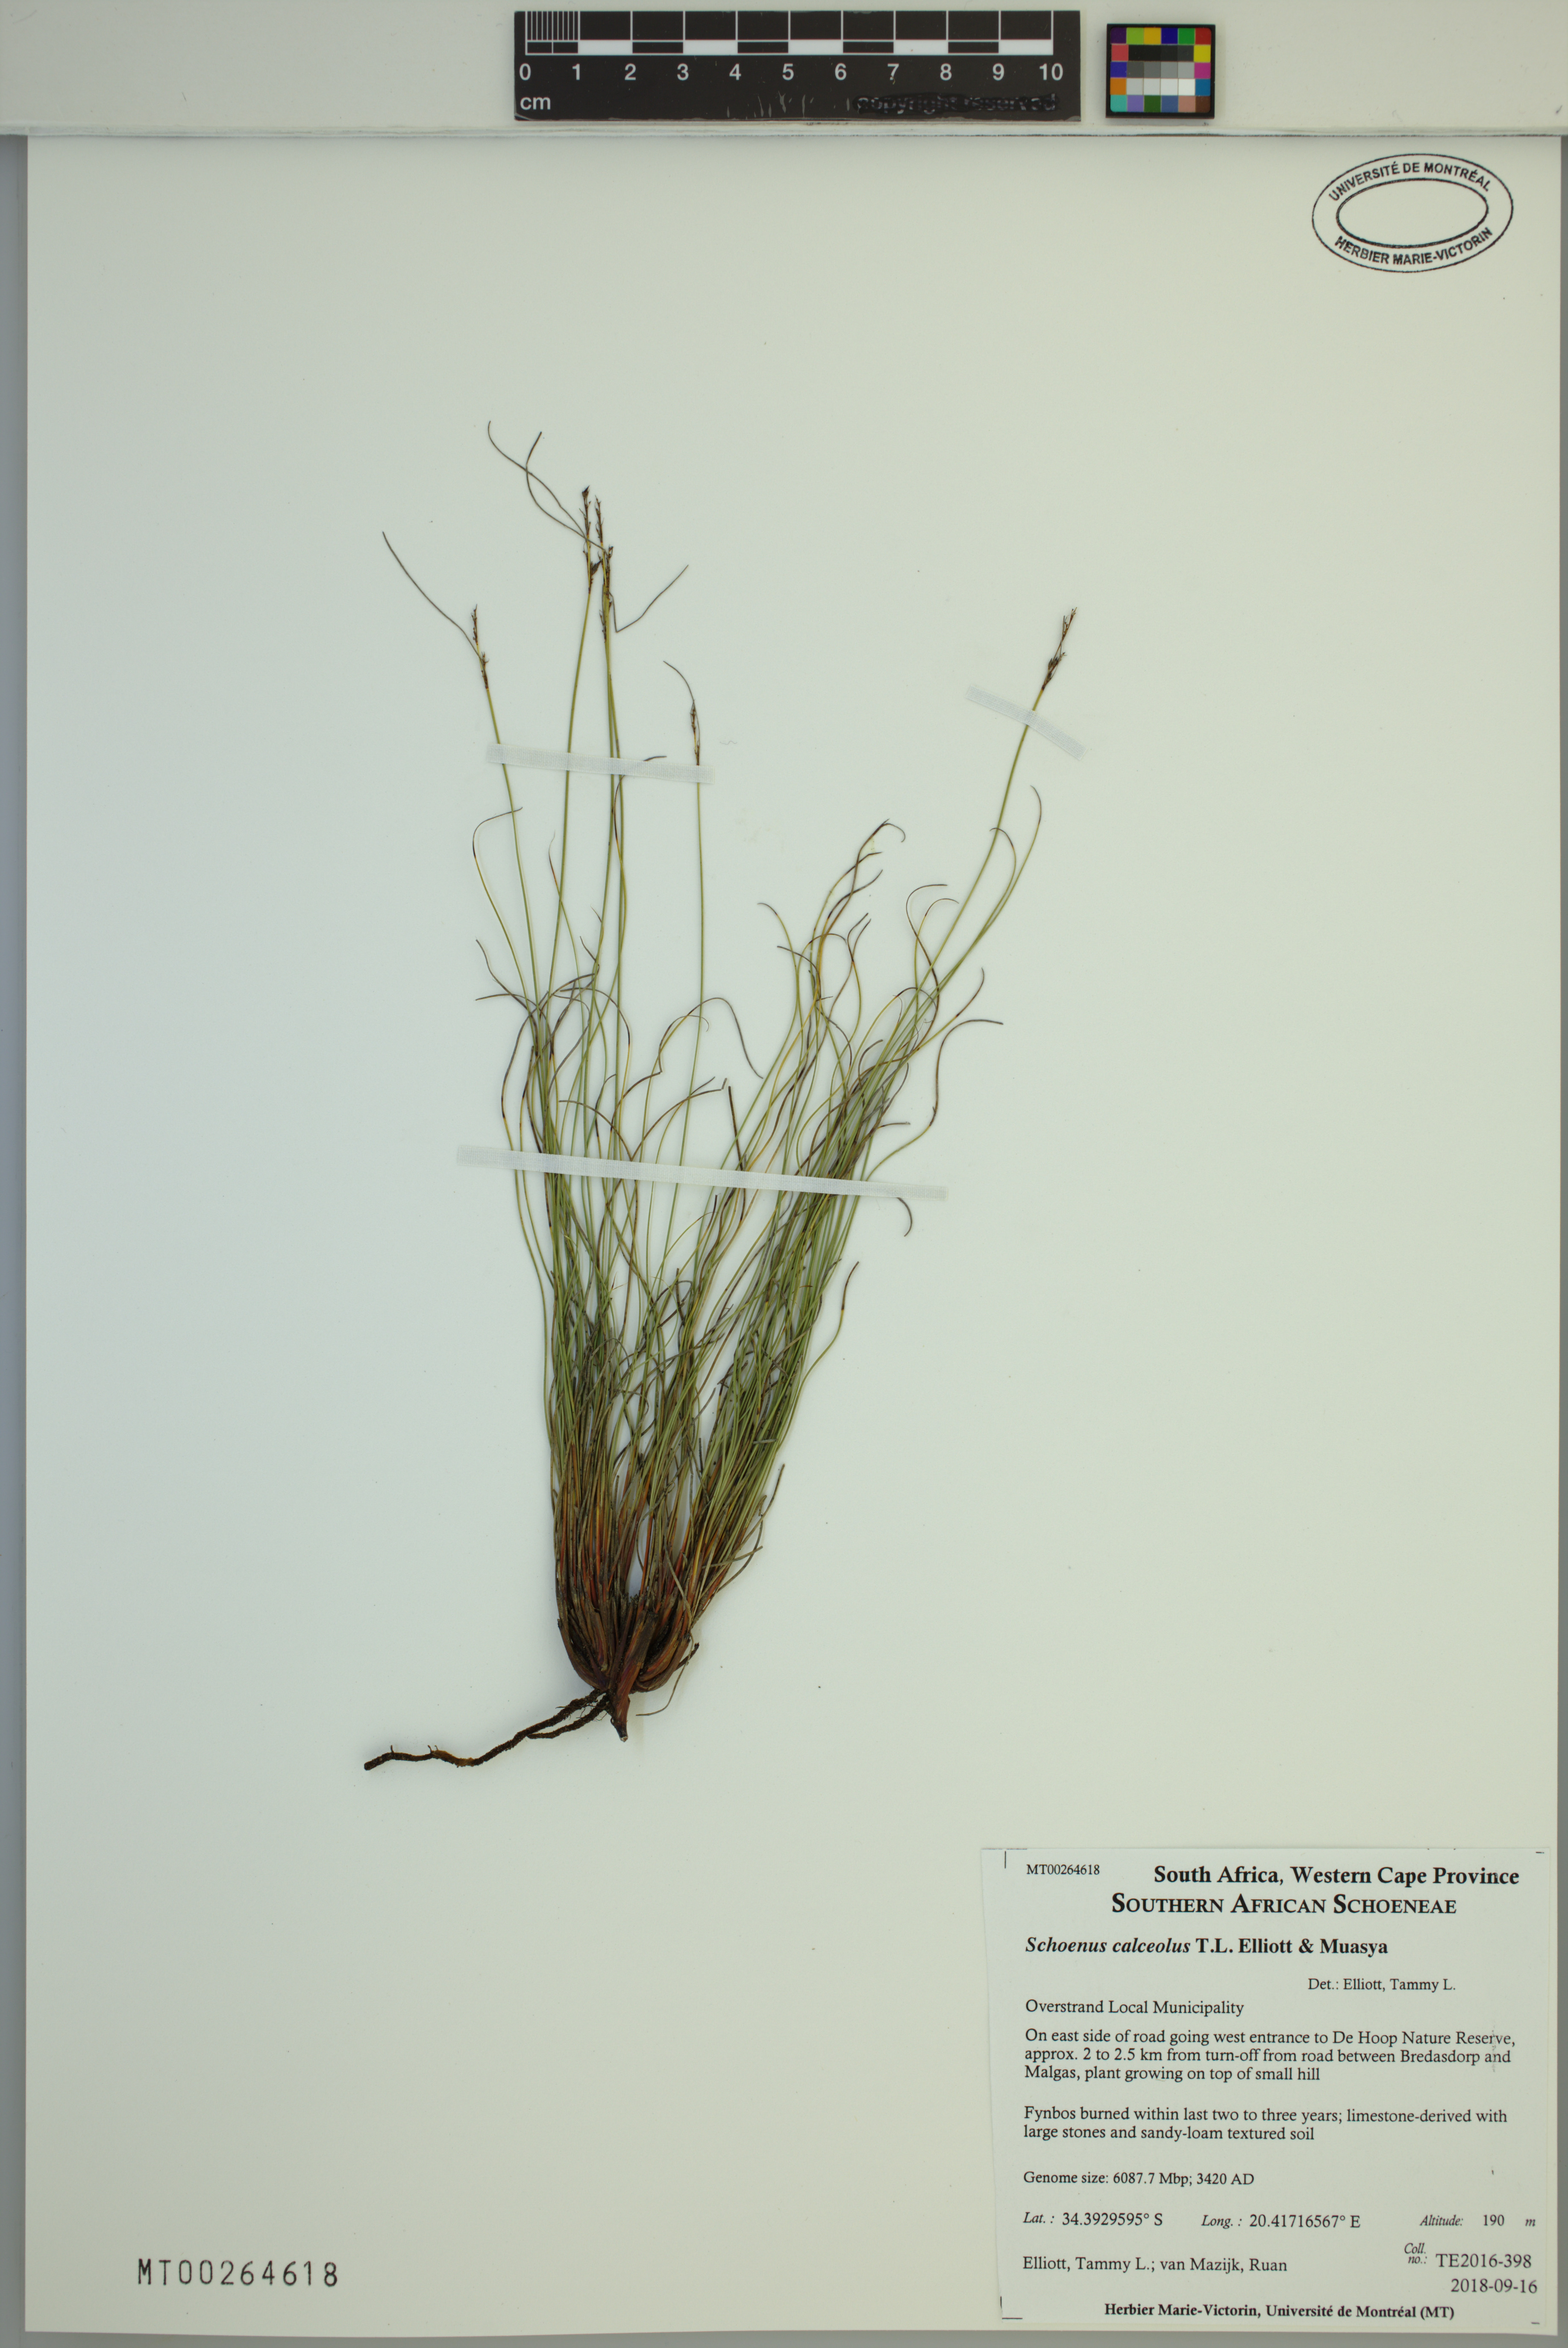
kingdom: Plantae
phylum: Tracheophyta
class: Liliopsida
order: Poales
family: Cyperaceae
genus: Schoenus
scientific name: Schoenus calceolus
